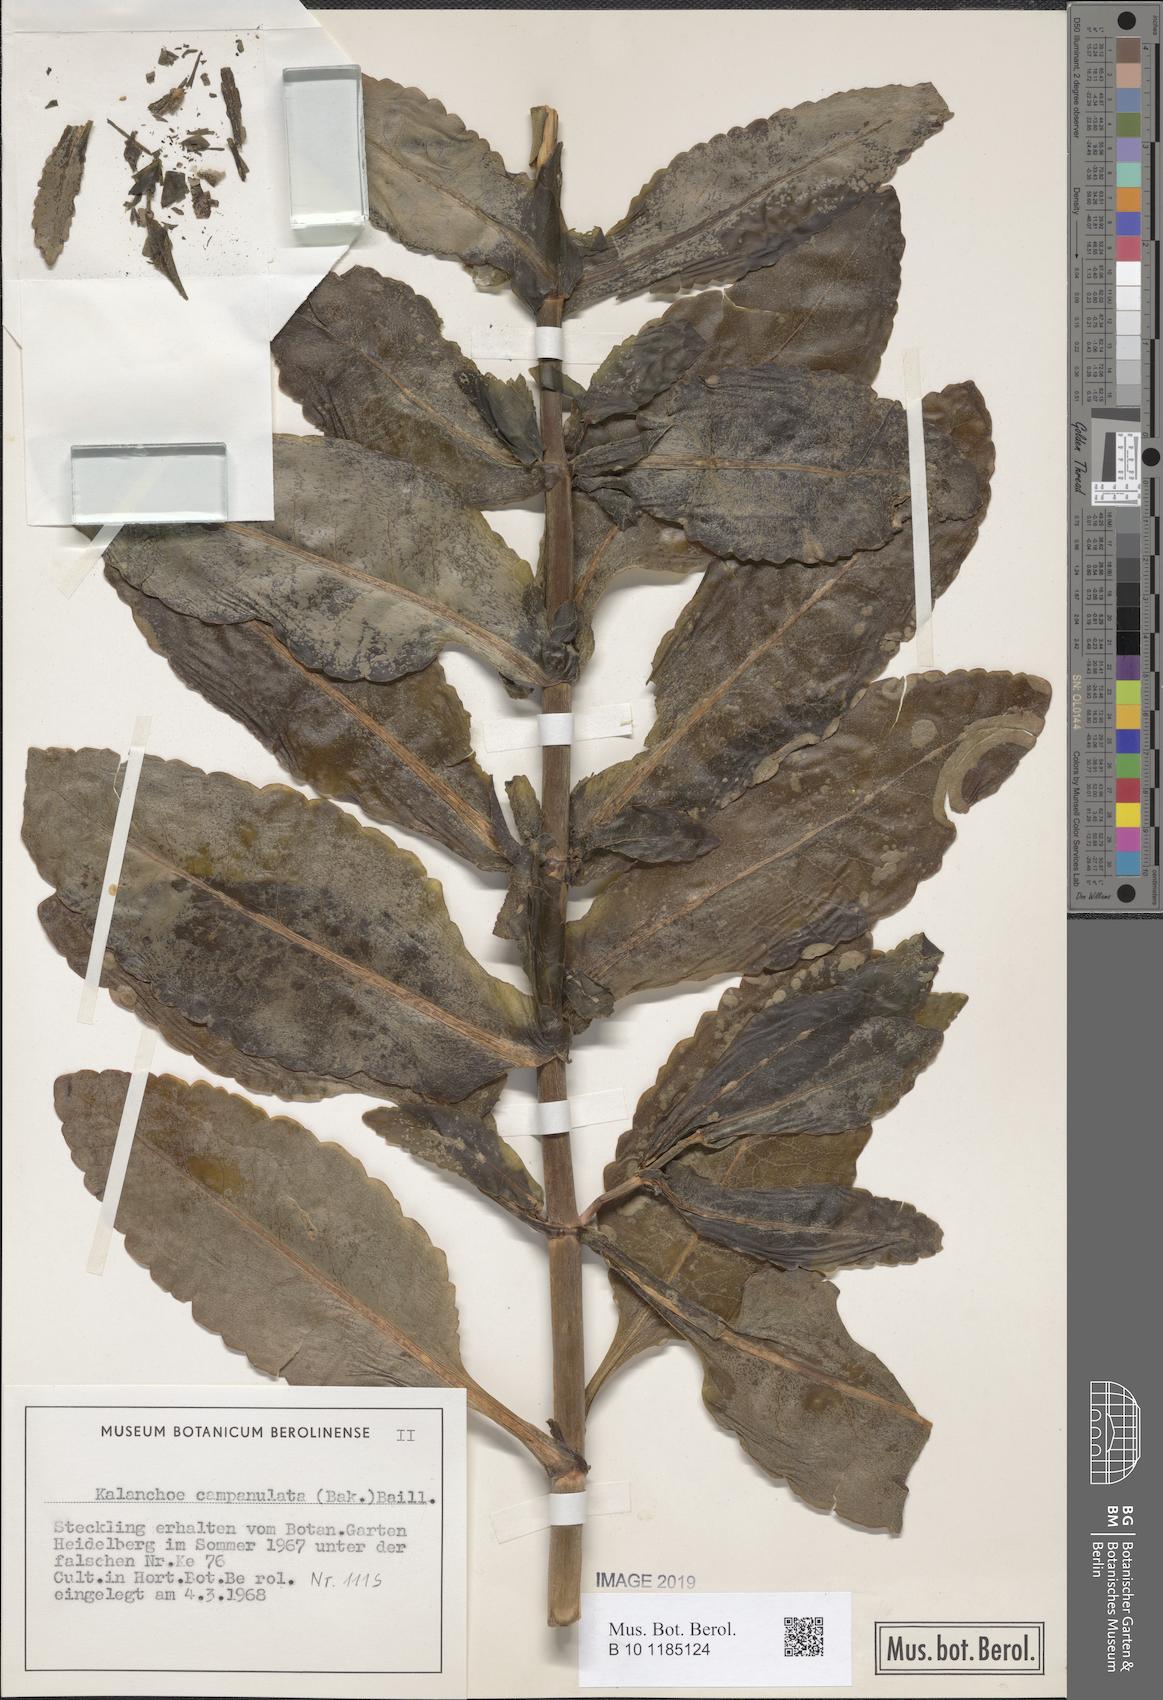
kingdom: Plantae
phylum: Tracheophyta
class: Magnoliopsida
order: Saxifragales
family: Crassulaceae
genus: Kalanchoe
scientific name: Kalanchoe campanulata
